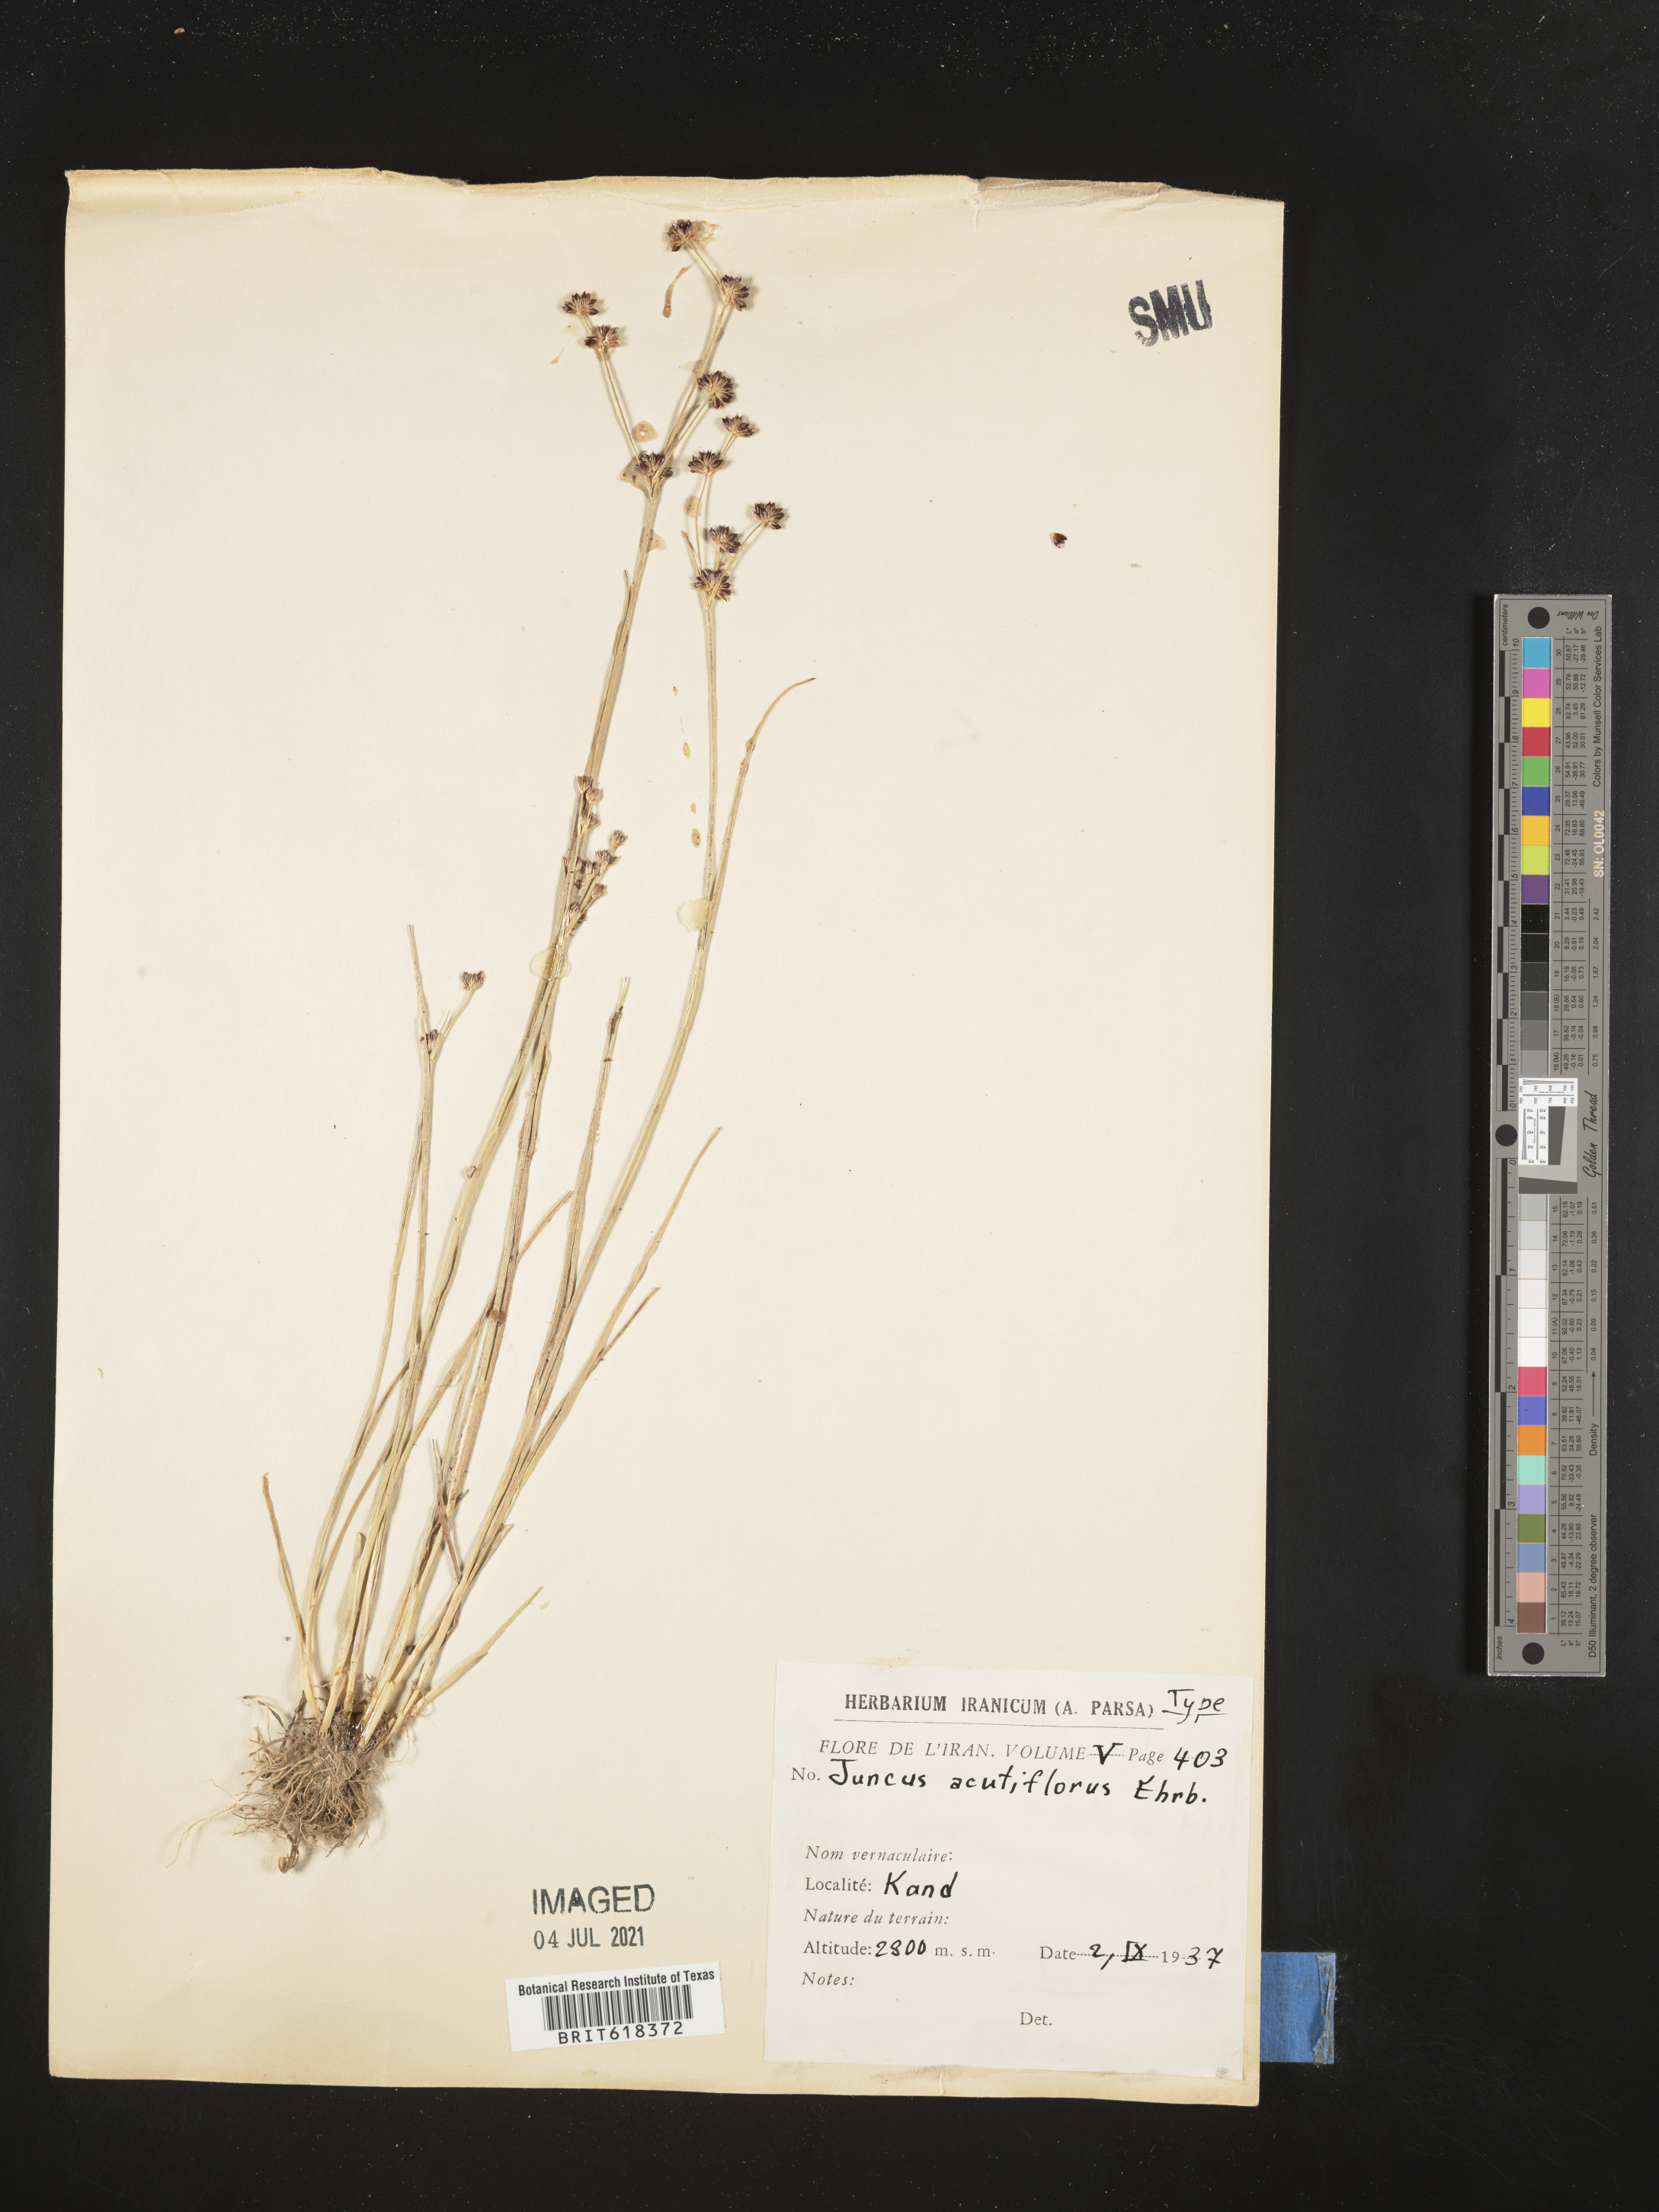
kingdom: Plantae
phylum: Tracheophyta
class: Liliopsida
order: Poales
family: Juncaceae
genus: Juncus
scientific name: Juncus acutiflorus
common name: Sharp-flowered rush
